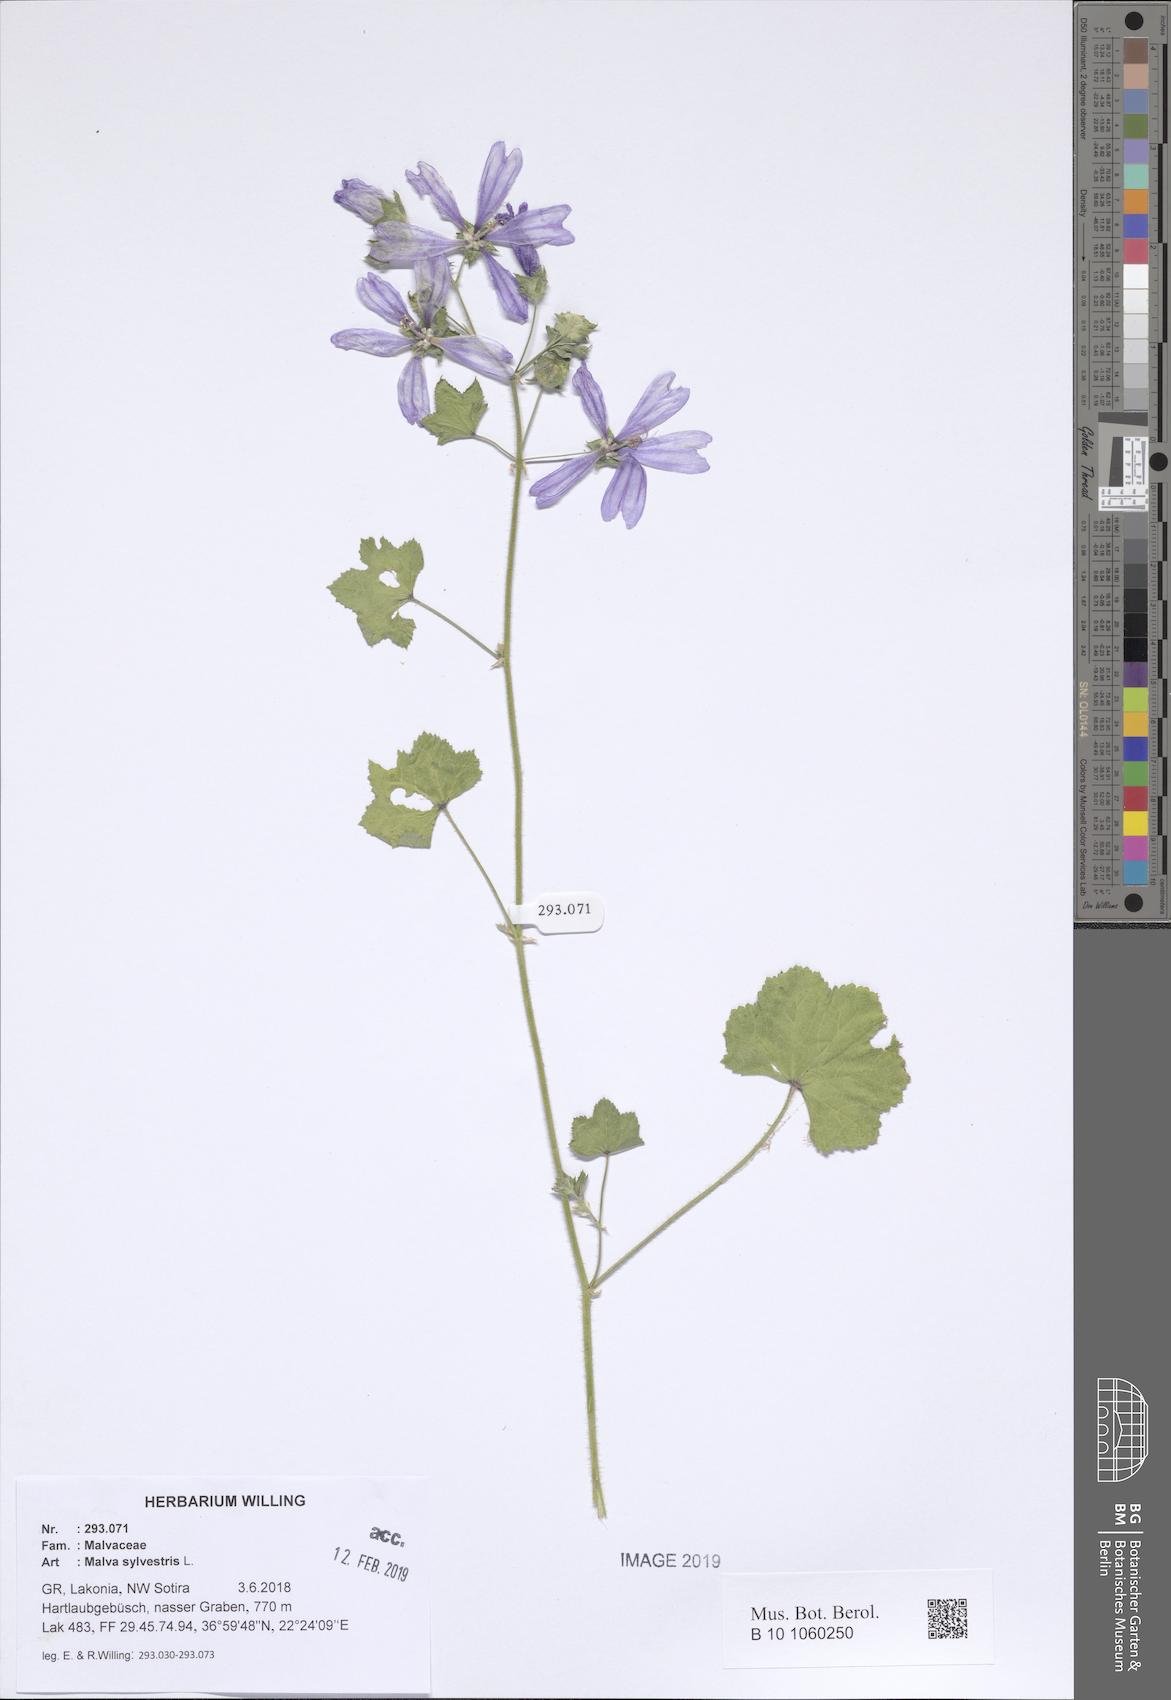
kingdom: Plantae
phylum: Tracheophyta
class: Magnoliopsida
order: Malvales
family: Malvaceae
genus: Malva
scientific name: Malva sylvestris
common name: Common mallow
